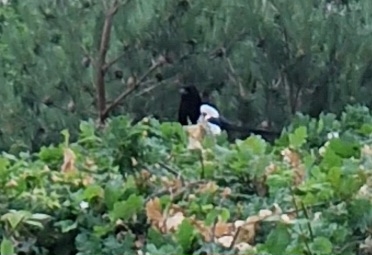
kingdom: Animalia
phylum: Chordata
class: Aves
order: Passeriformes
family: Corvidae
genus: Pica
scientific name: Pica pica
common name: Husskade
